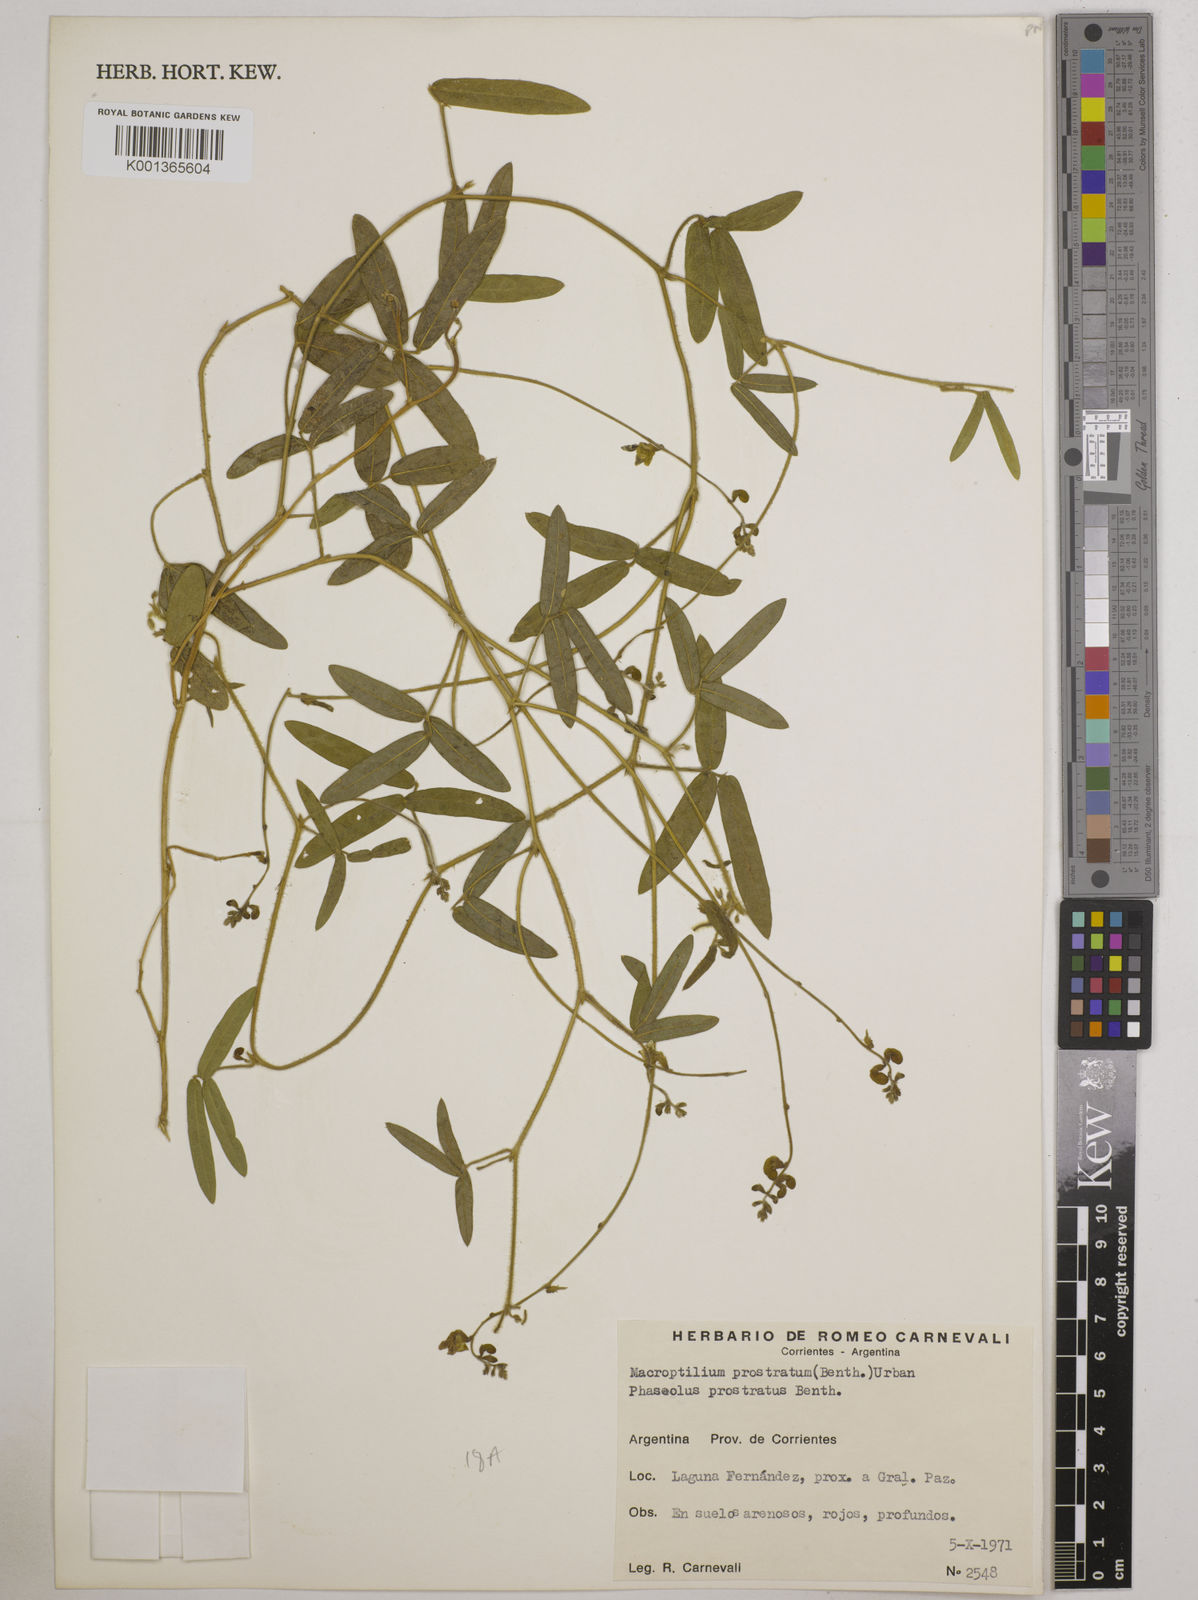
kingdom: Plantae
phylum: Tracheophyta
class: Magnoliopsida
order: Fabales
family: Fabaceae
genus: Macroptilium
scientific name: Macroptilium prostratum
